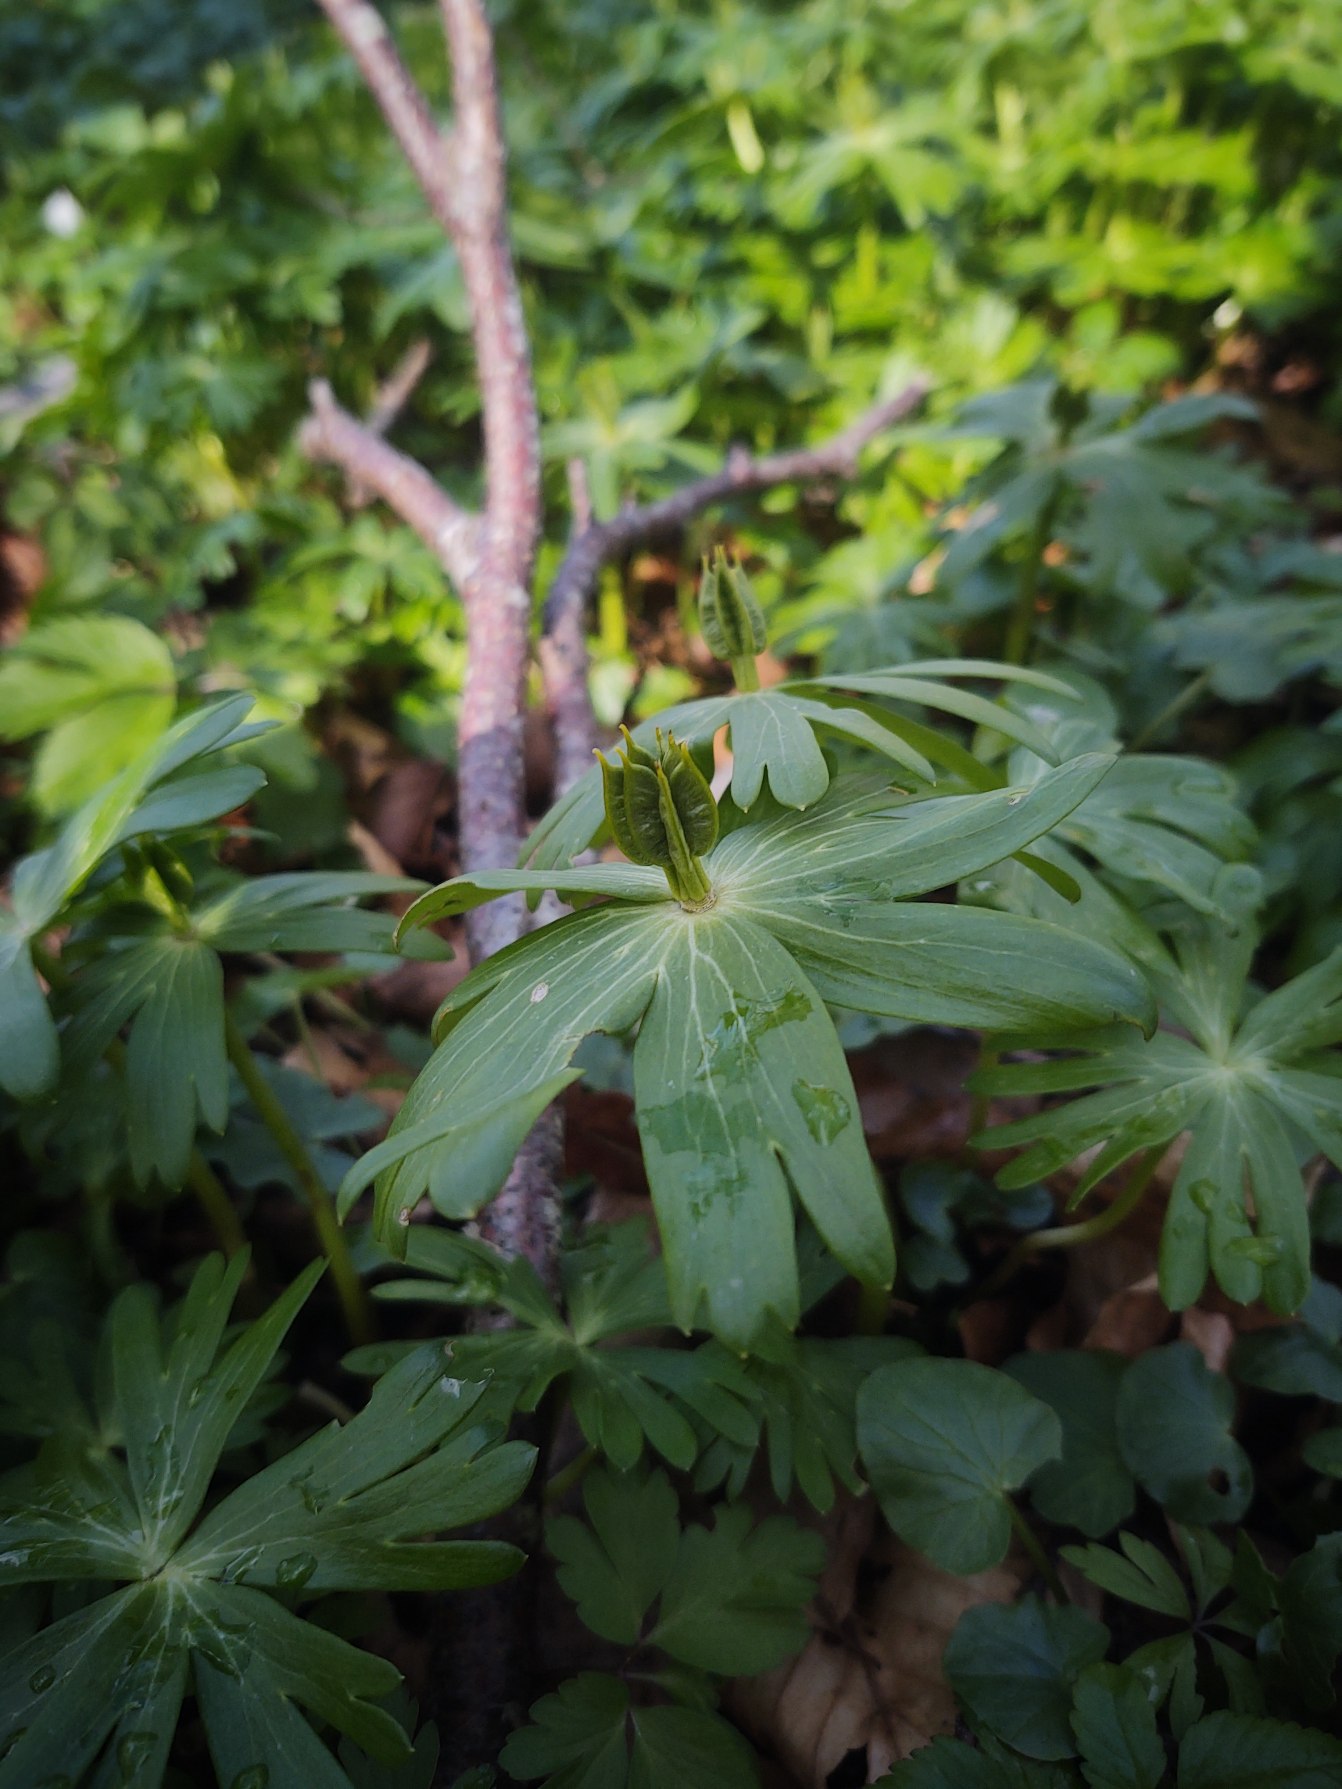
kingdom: Plantae
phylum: Tracheophyta
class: Magnoliopsida
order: Ranunculales
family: Ranunculaceae
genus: Eranthis
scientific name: Eranthis hyemalis
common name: Erantis
